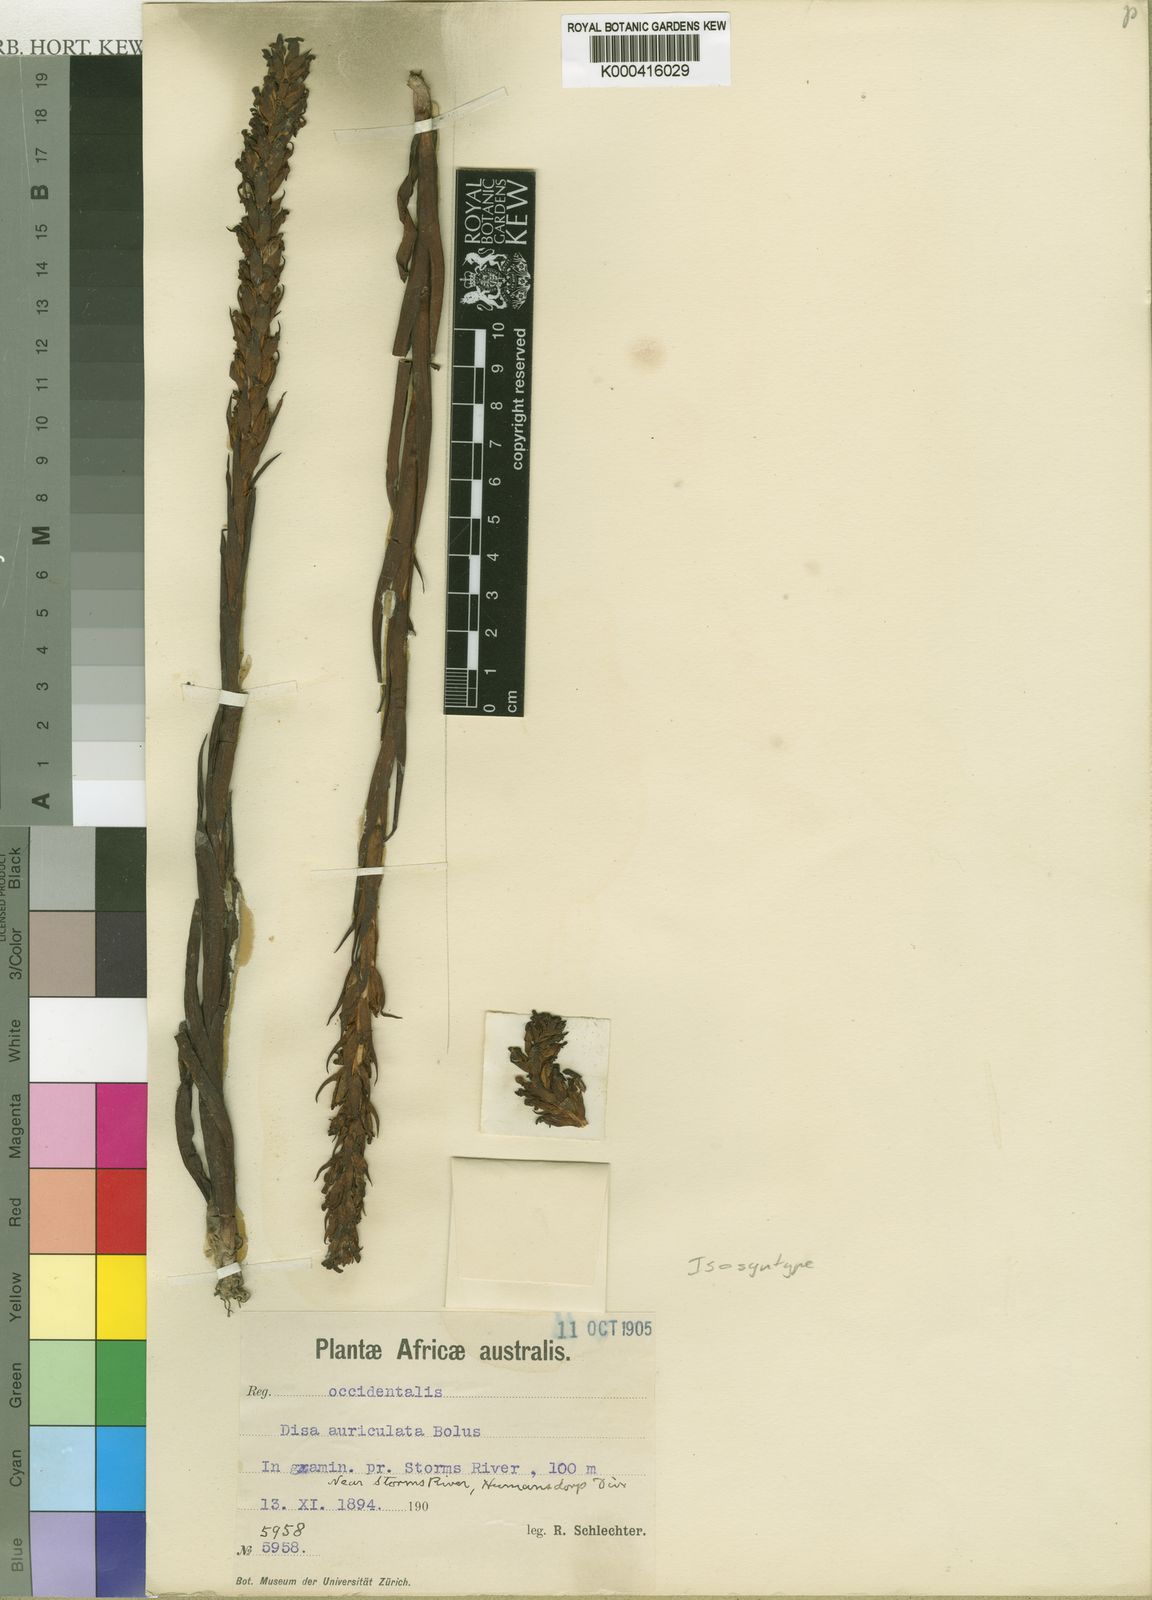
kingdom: Plantae
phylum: Tracheophyta
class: Liliopsida
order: Asparagales
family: Orchidaceae
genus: Disa
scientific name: Disa densiflora
